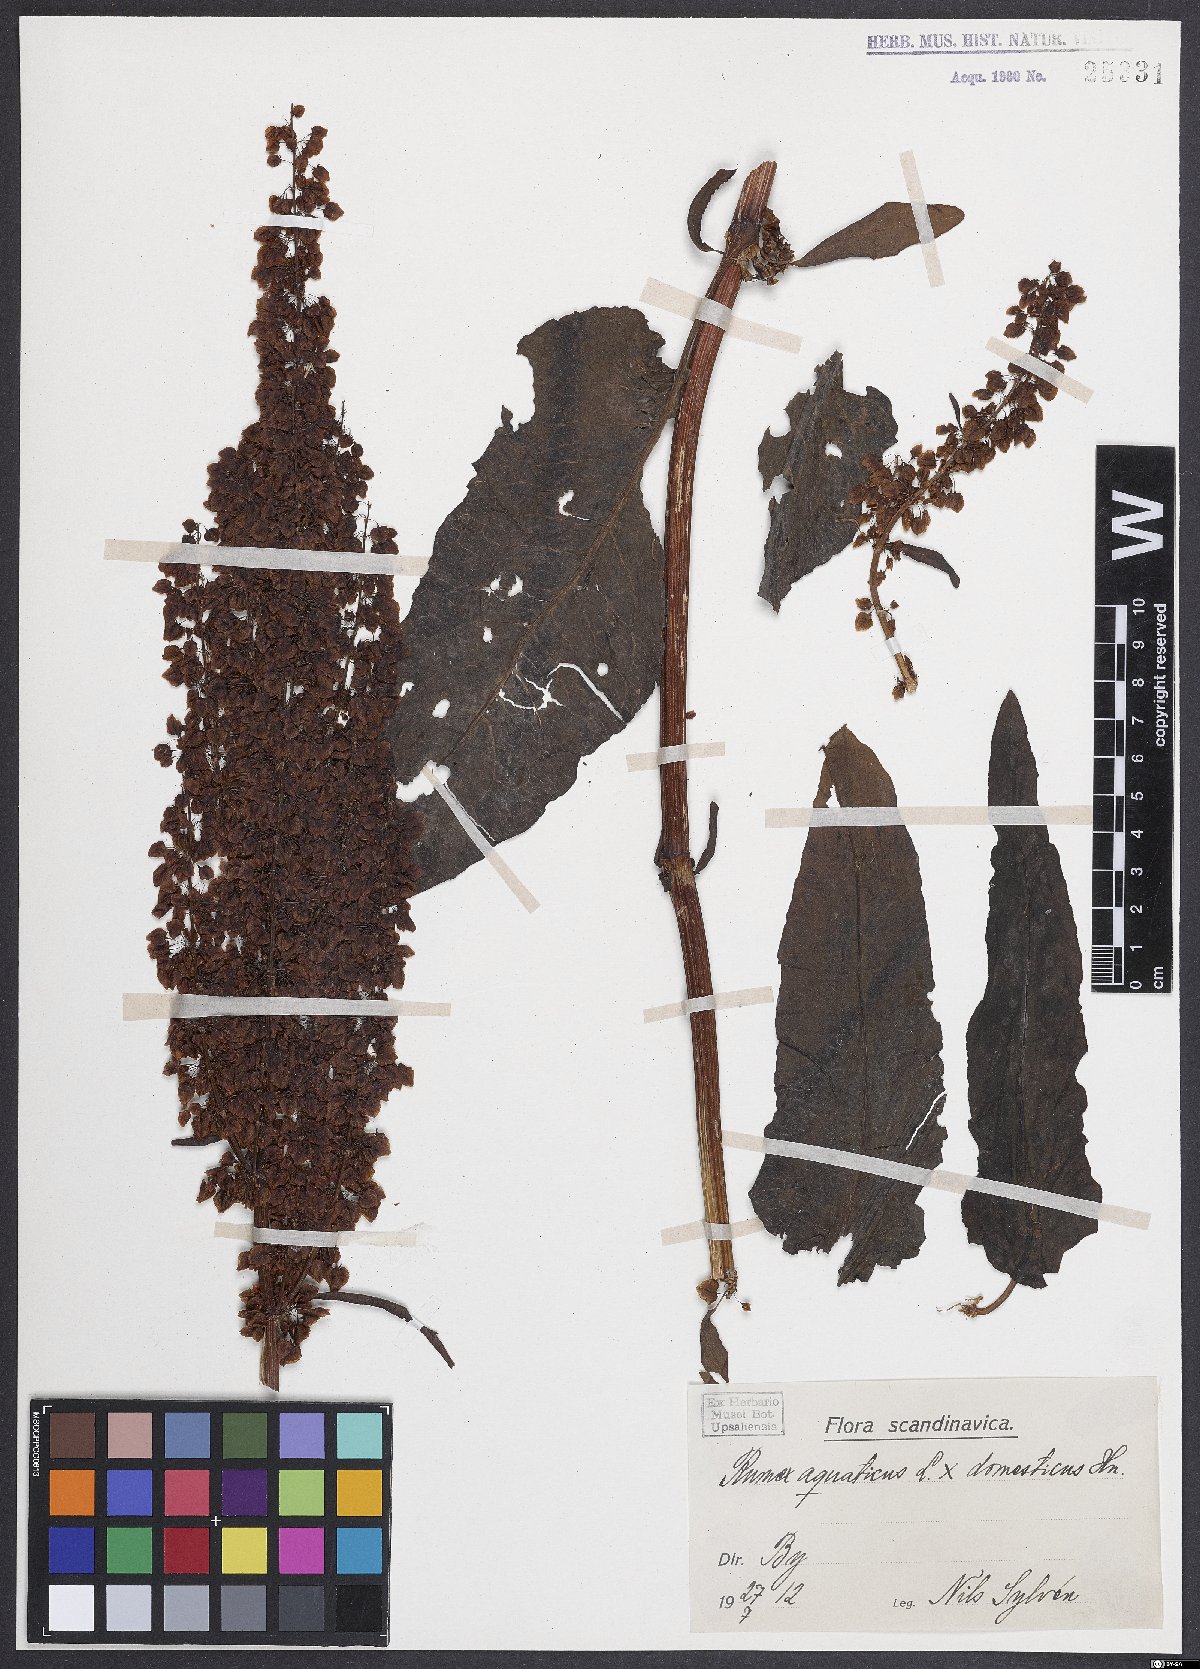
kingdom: Plantae
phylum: Tracheophyta
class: Magnoliopsida
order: Caryophyllales
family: Polygonaceae
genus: Rumex
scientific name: Rumex
